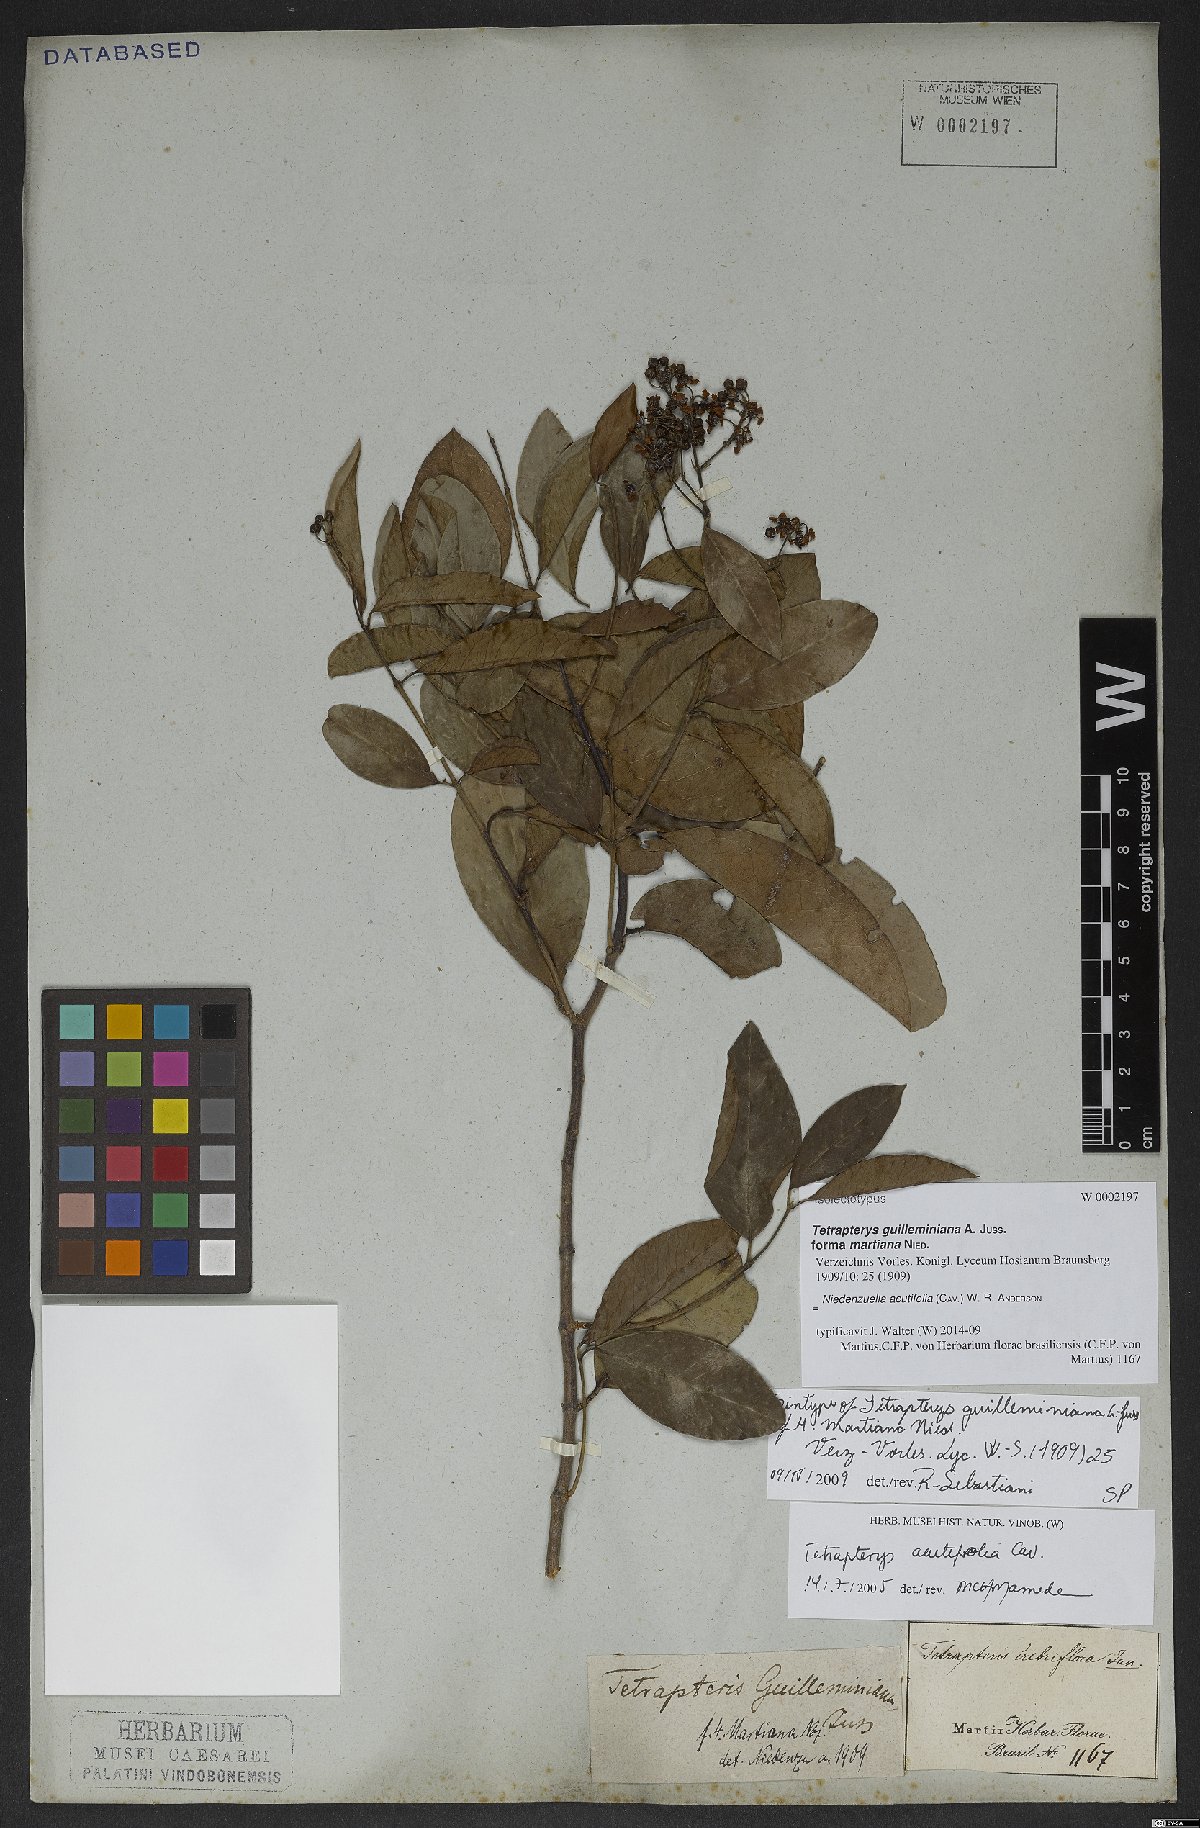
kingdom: Plantae
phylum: Tracheophyta
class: Magnoliopsida
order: Malpighiales
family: Malpighiaceae
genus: Niedenzuella
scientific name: Niedenzuella acutifolia
